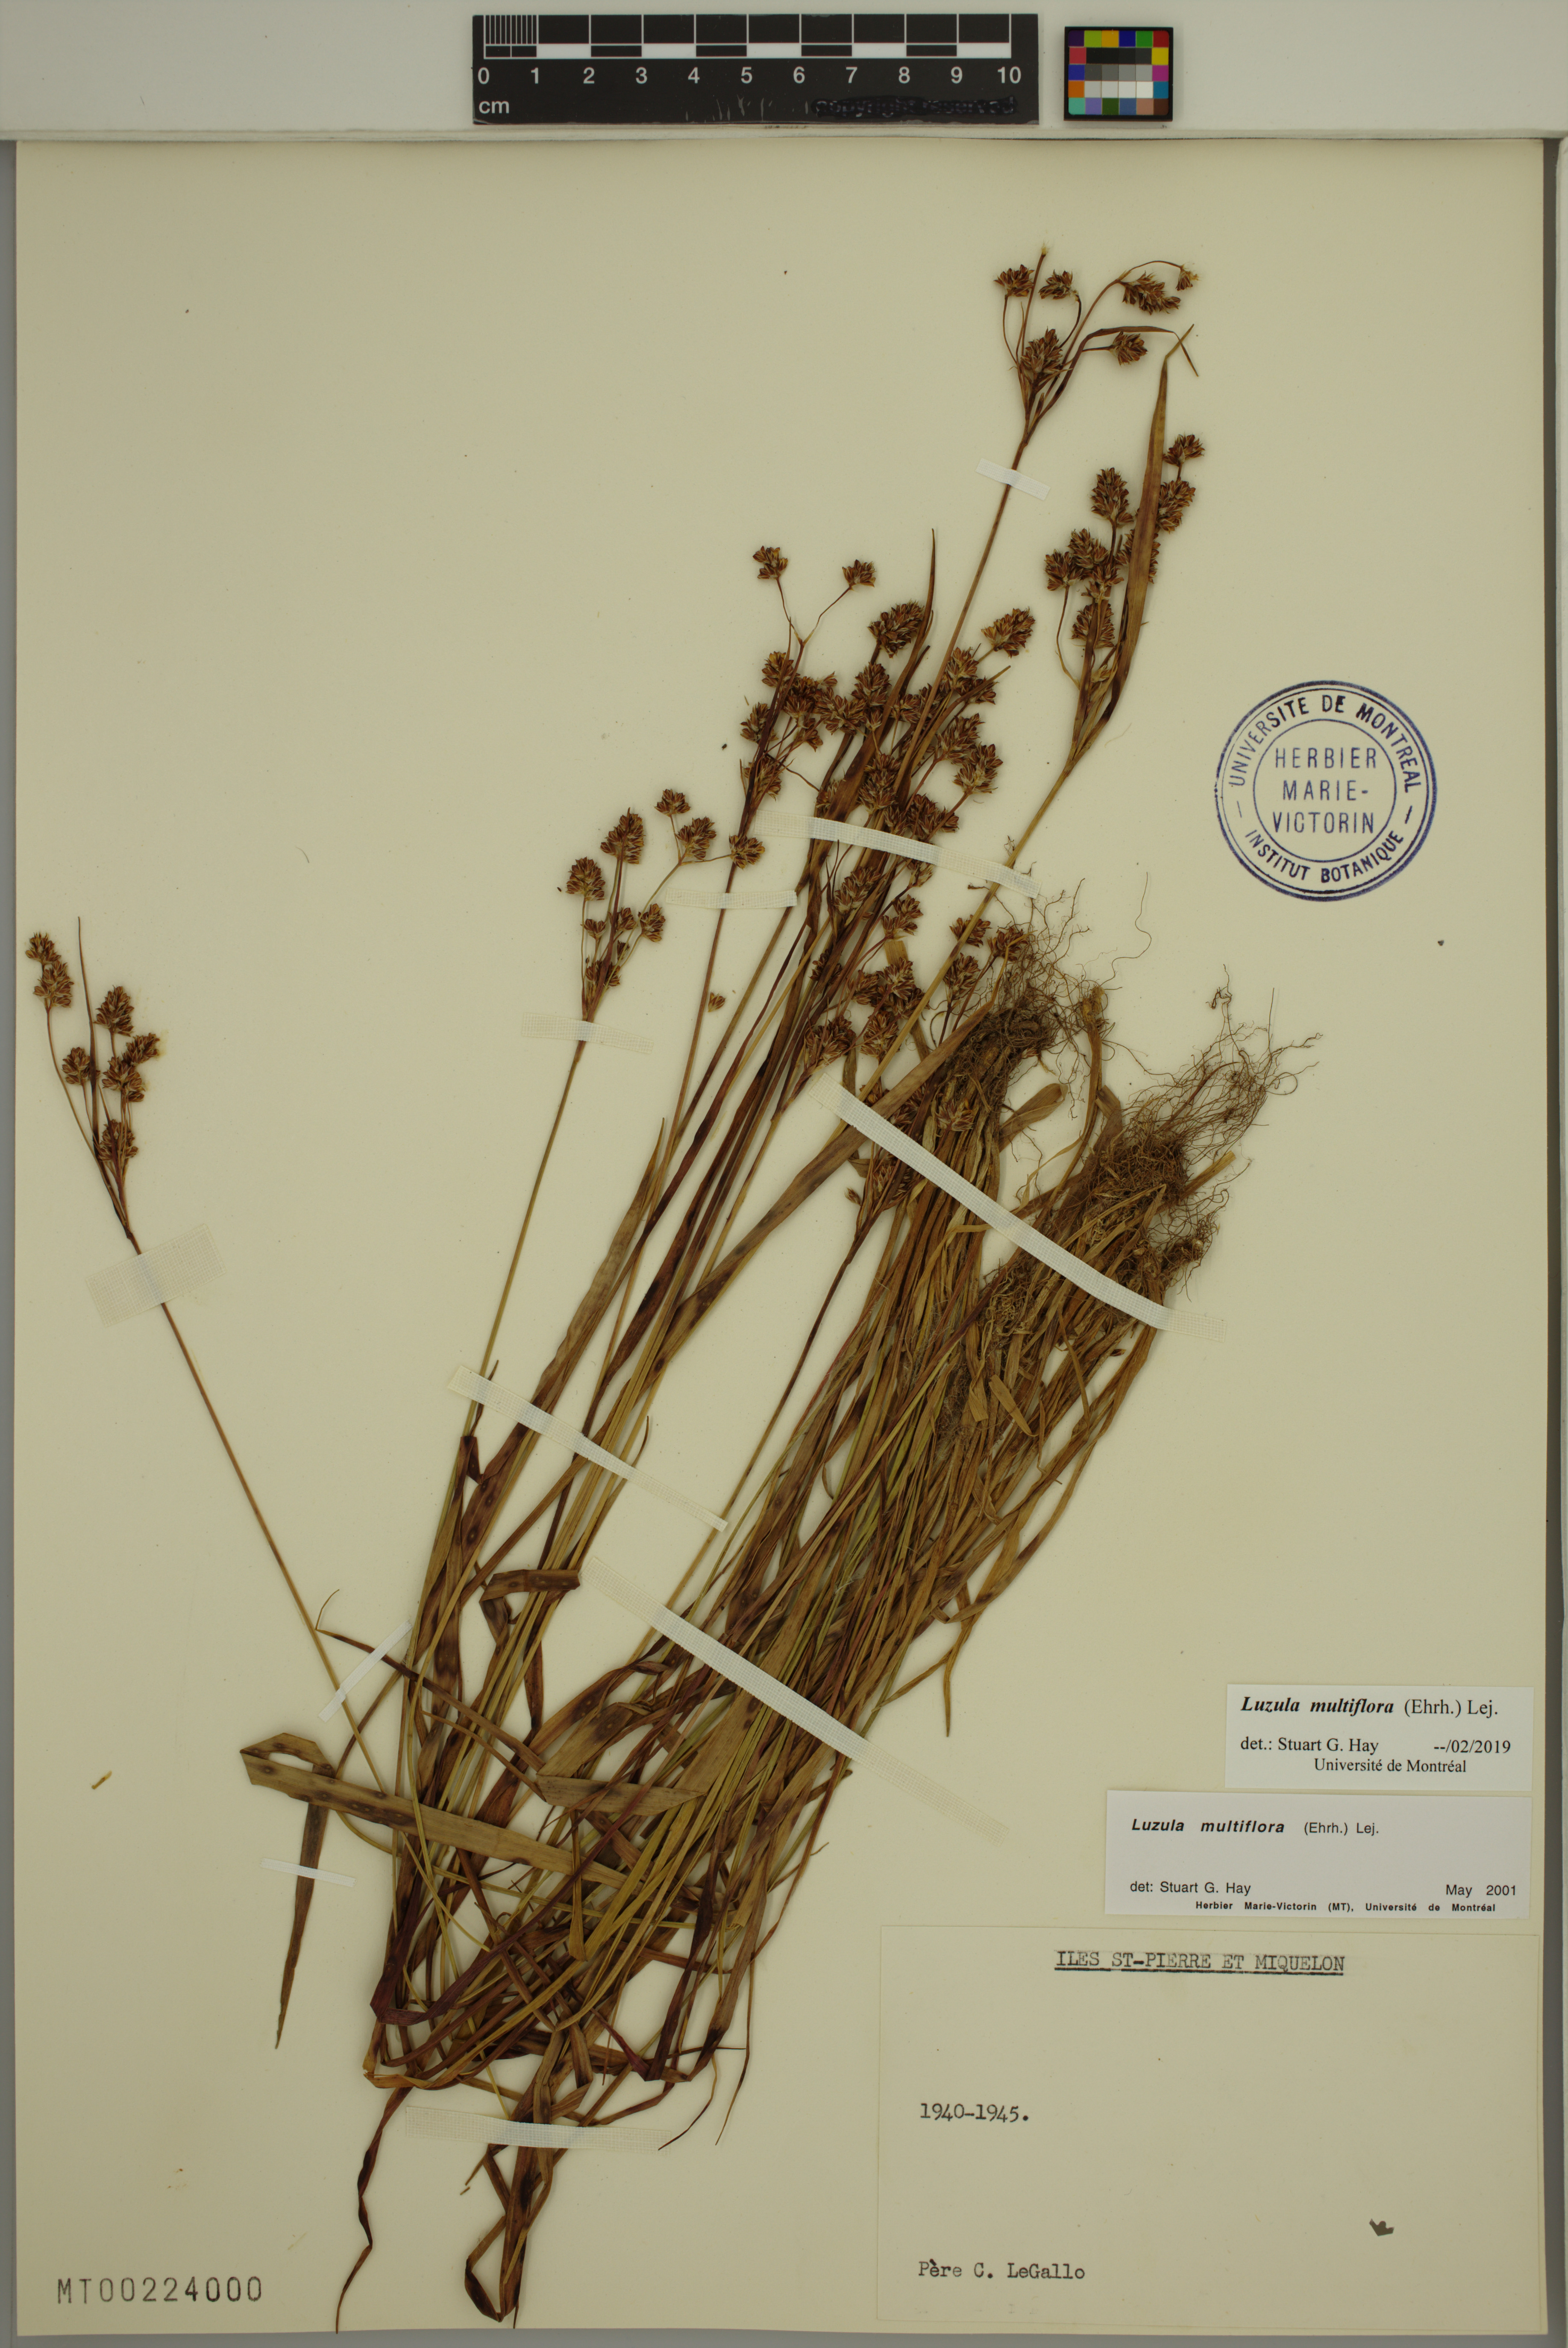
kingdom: Plantae
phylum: Tracheophyta
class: Liliopsida
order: Poales
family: Juncaceae
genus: Luzula
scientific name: Luzula multiflora
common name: Heath wood-rush
